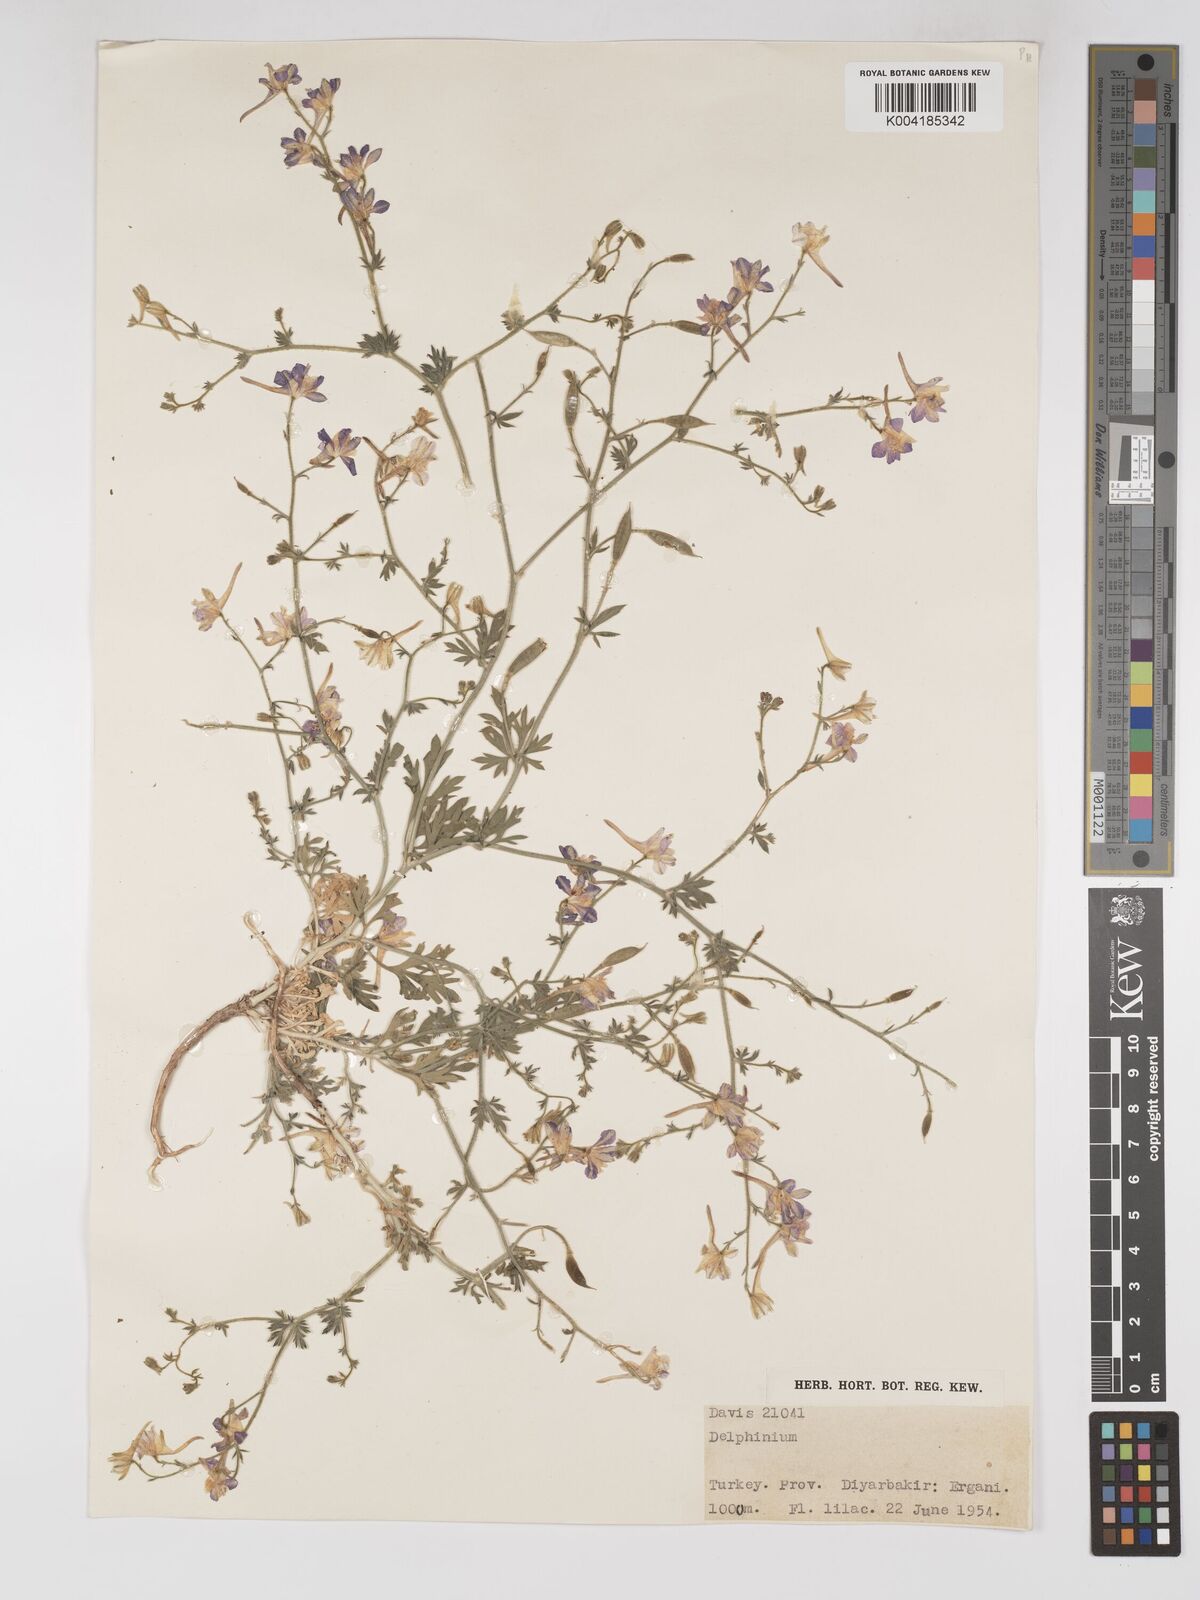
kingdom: Plantae
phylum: Tracheophyta
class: Magnoliopsida
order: Ranunculales
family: Ranunculaceae
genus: Delphinium
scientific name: Delphinium oliverianum
